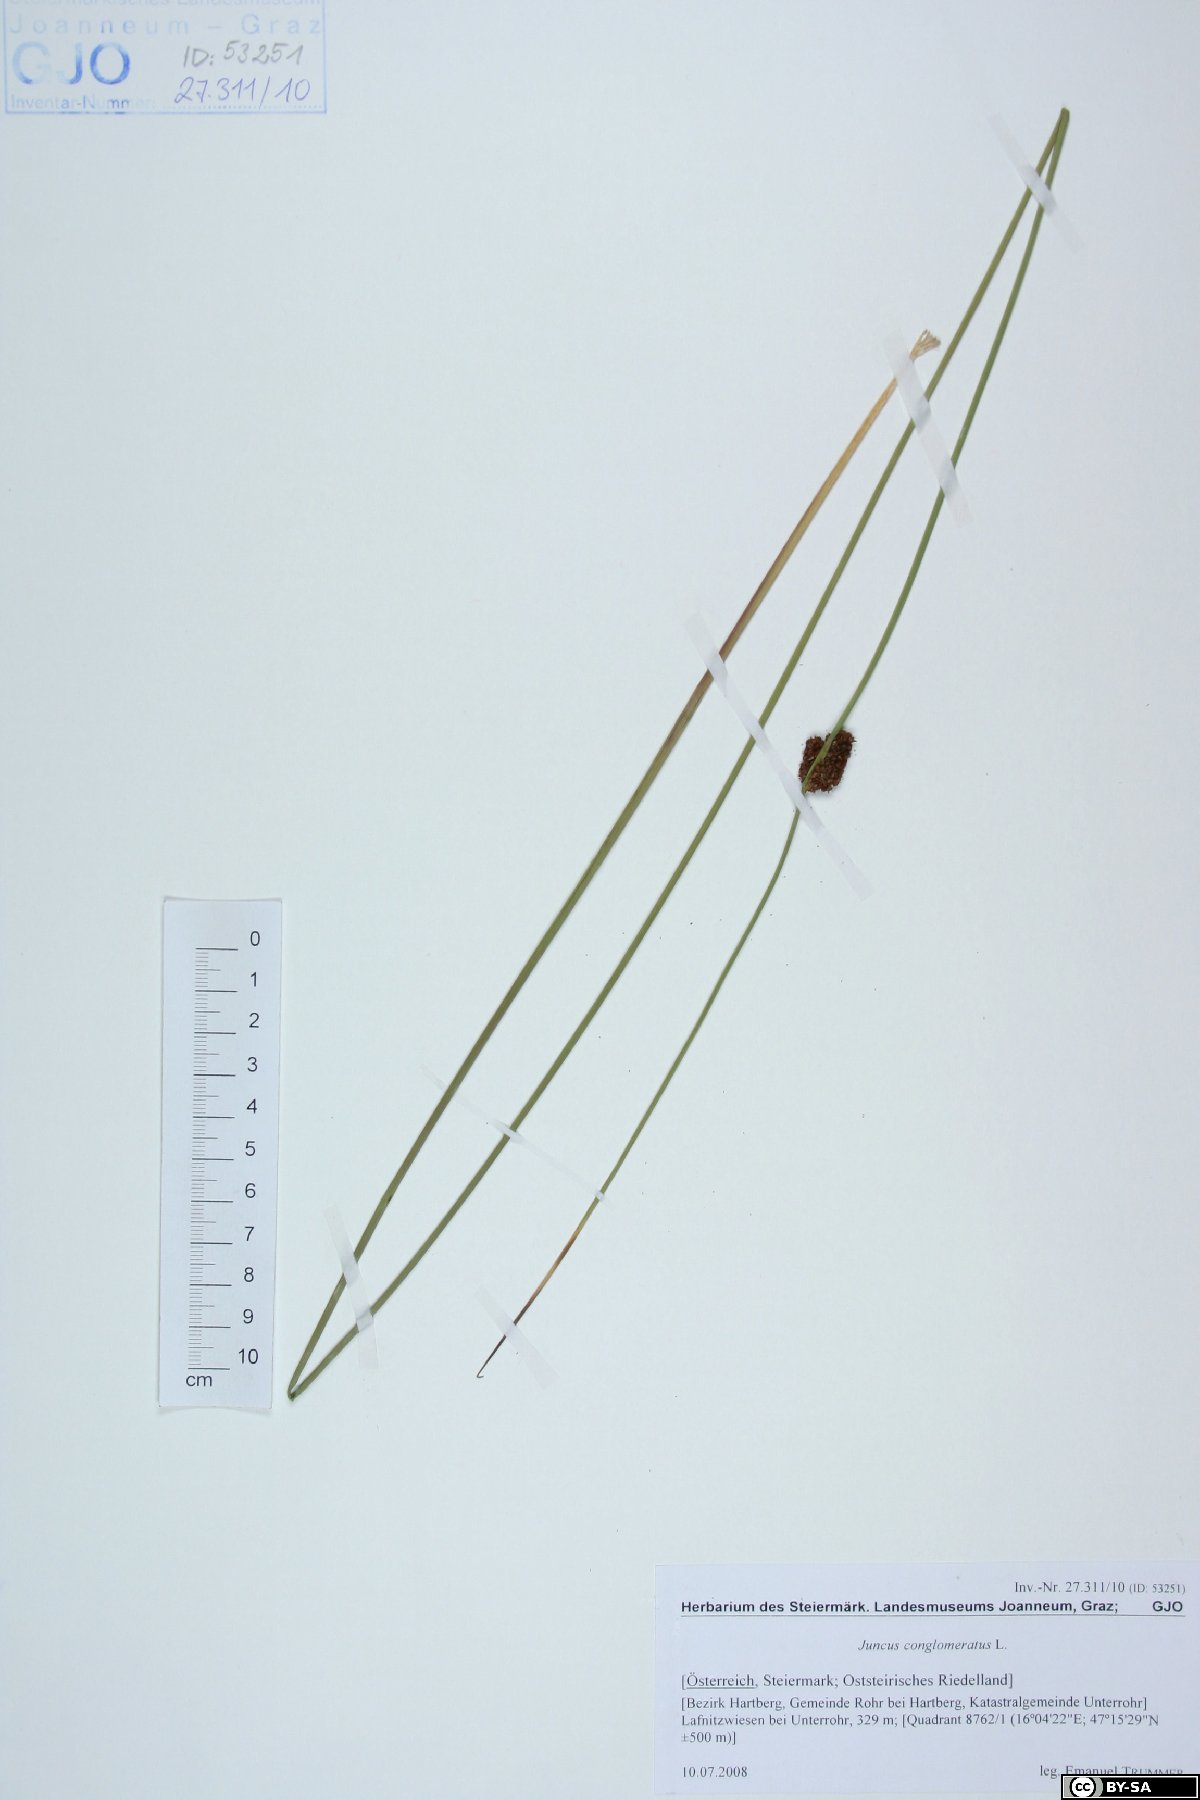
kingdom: Plantae
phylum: Tracheophyta
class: Liliopsida
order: Poales
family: Juncaceae
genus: Juncus
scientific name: Juncus conglomeratus
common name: Compact rush
